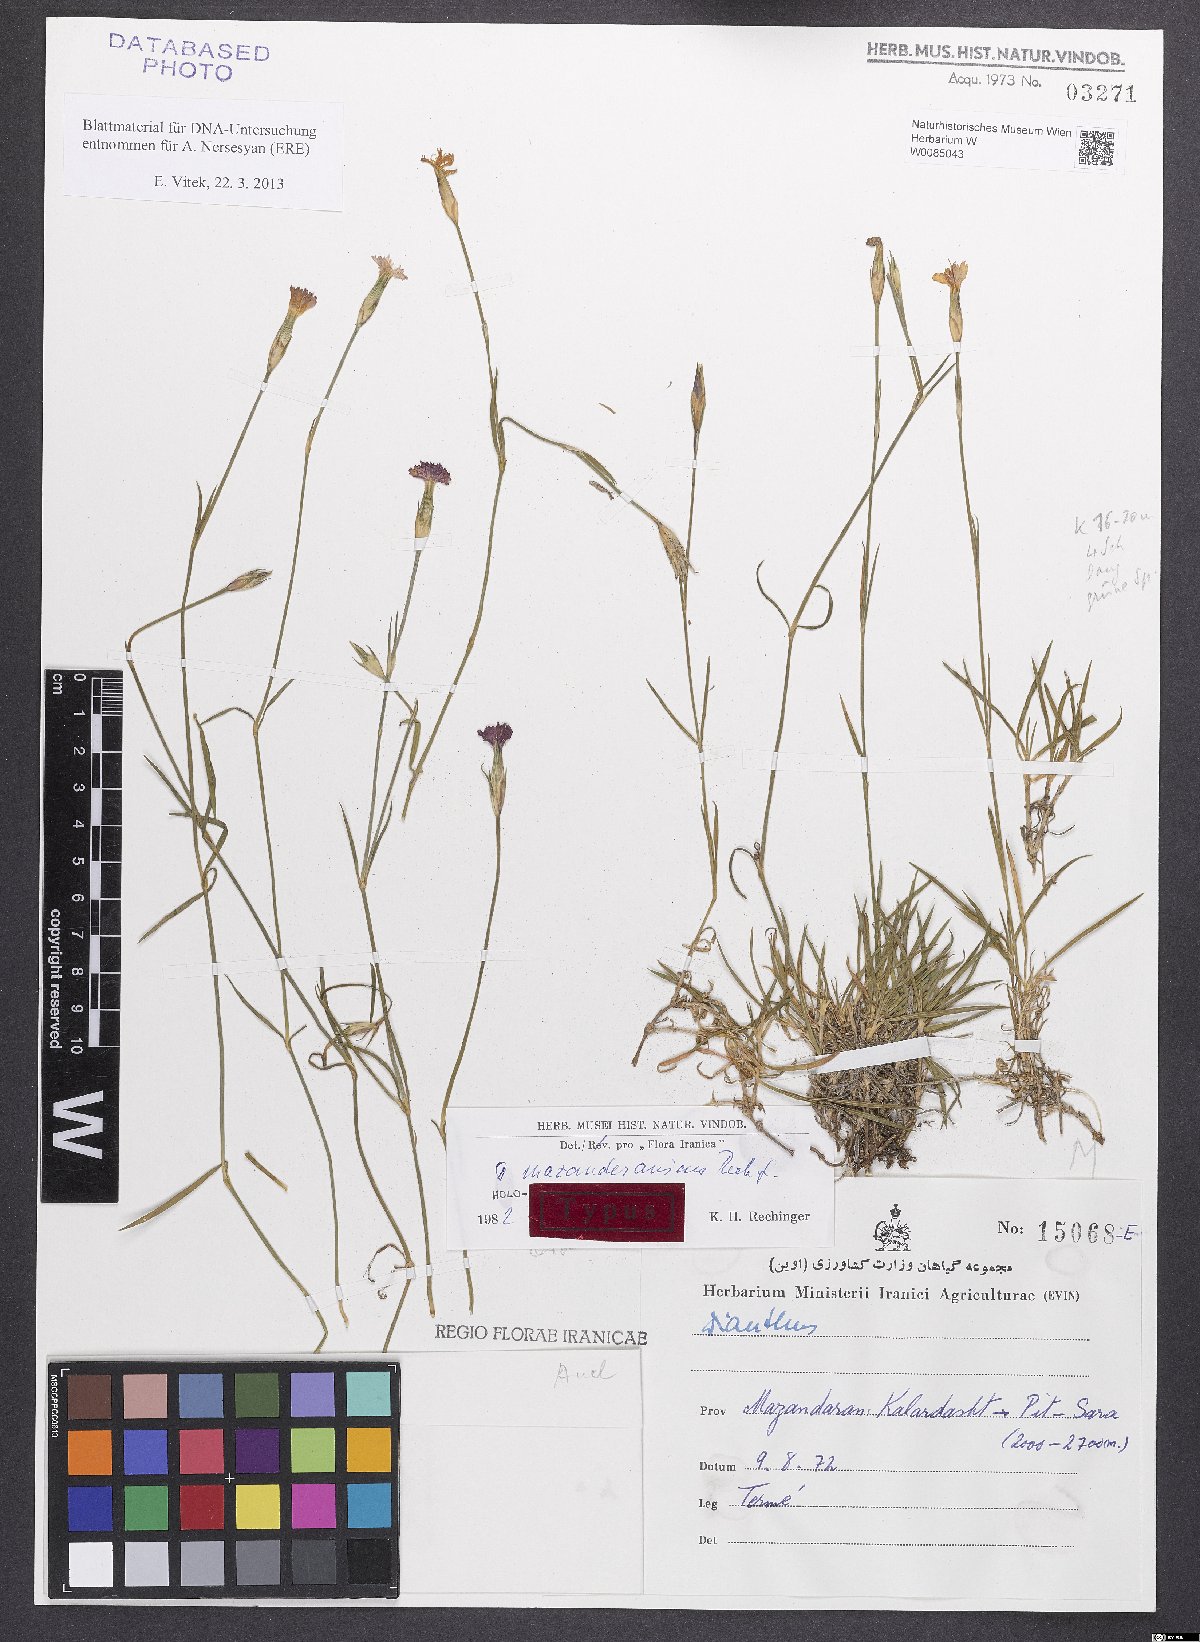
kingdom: Plantae
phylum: Tracheophyta
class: Magnoliopsida
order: Caryophyllales
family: Caryophyllaceae
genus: Dianthus
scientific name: Dianthus mazanderanicus
